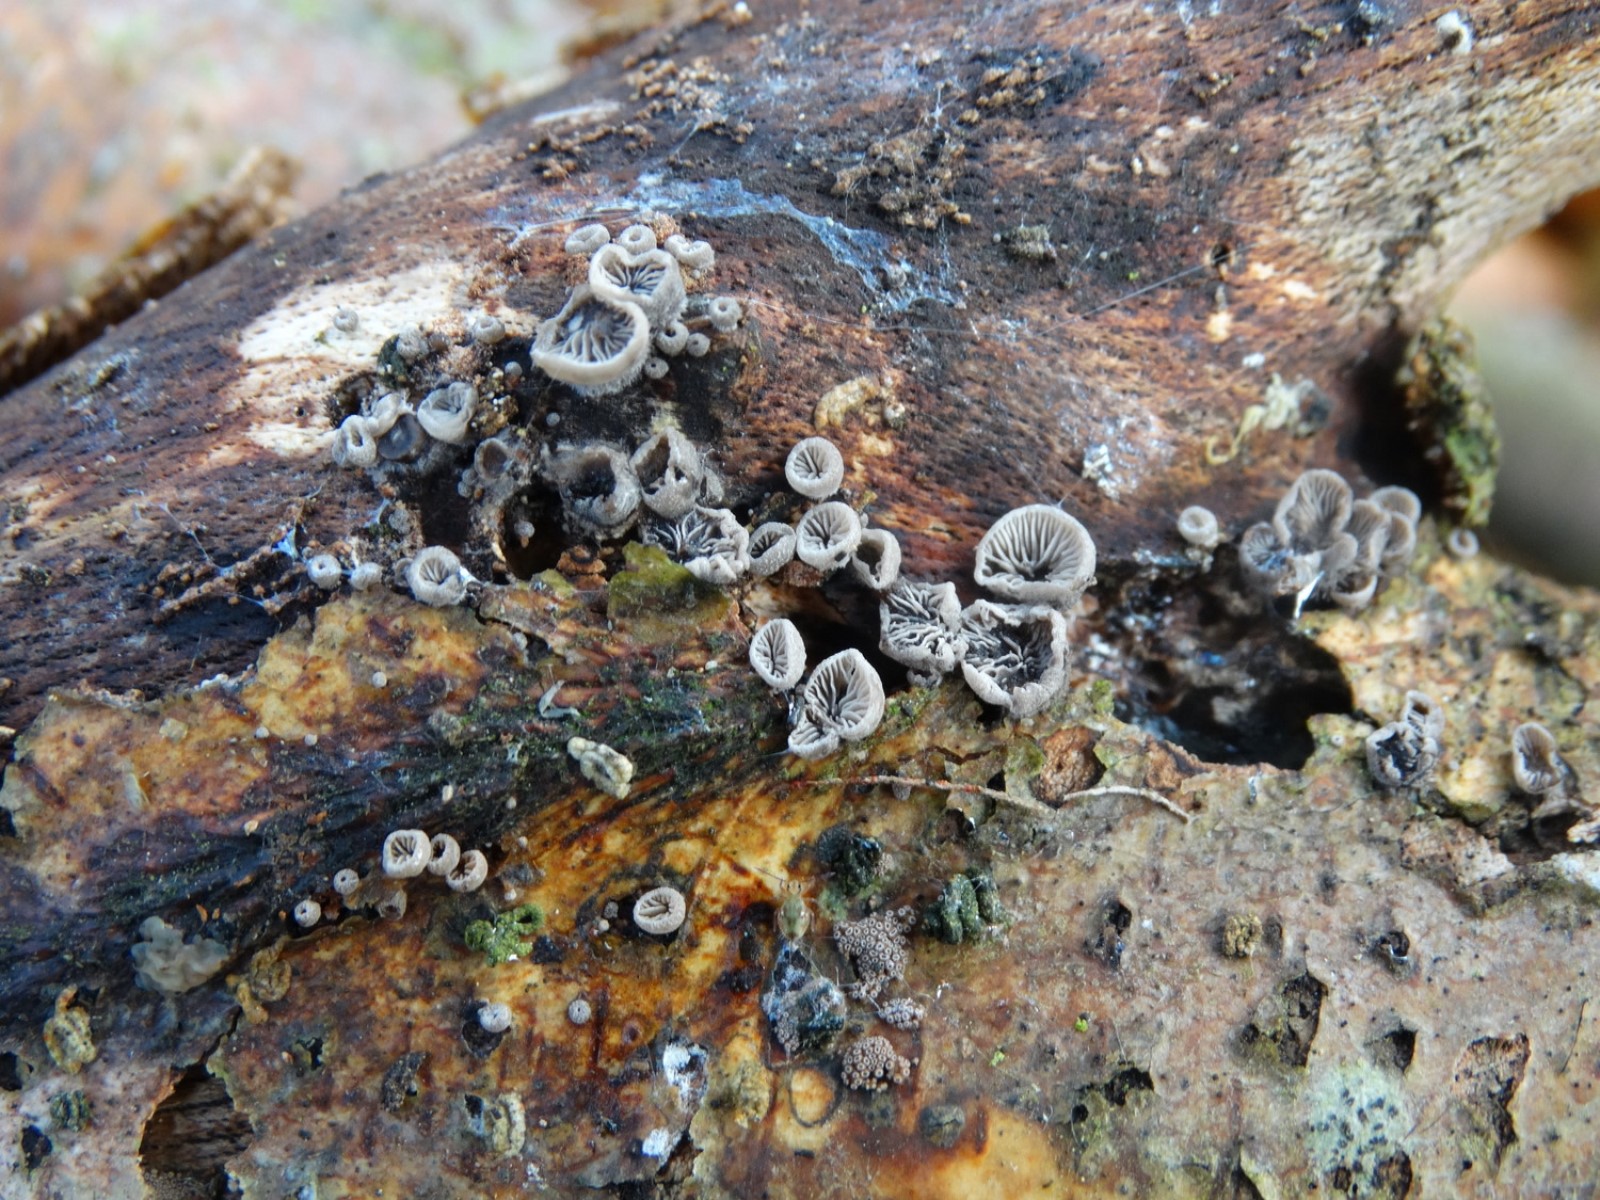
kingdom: Fungi
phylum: Basidiomycota
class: Agaricomycetes
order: Agaricales
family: Pleurotaceae
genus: Resupinatus
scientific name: Resupinatus applicatus
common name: lysfiltet barkhat
